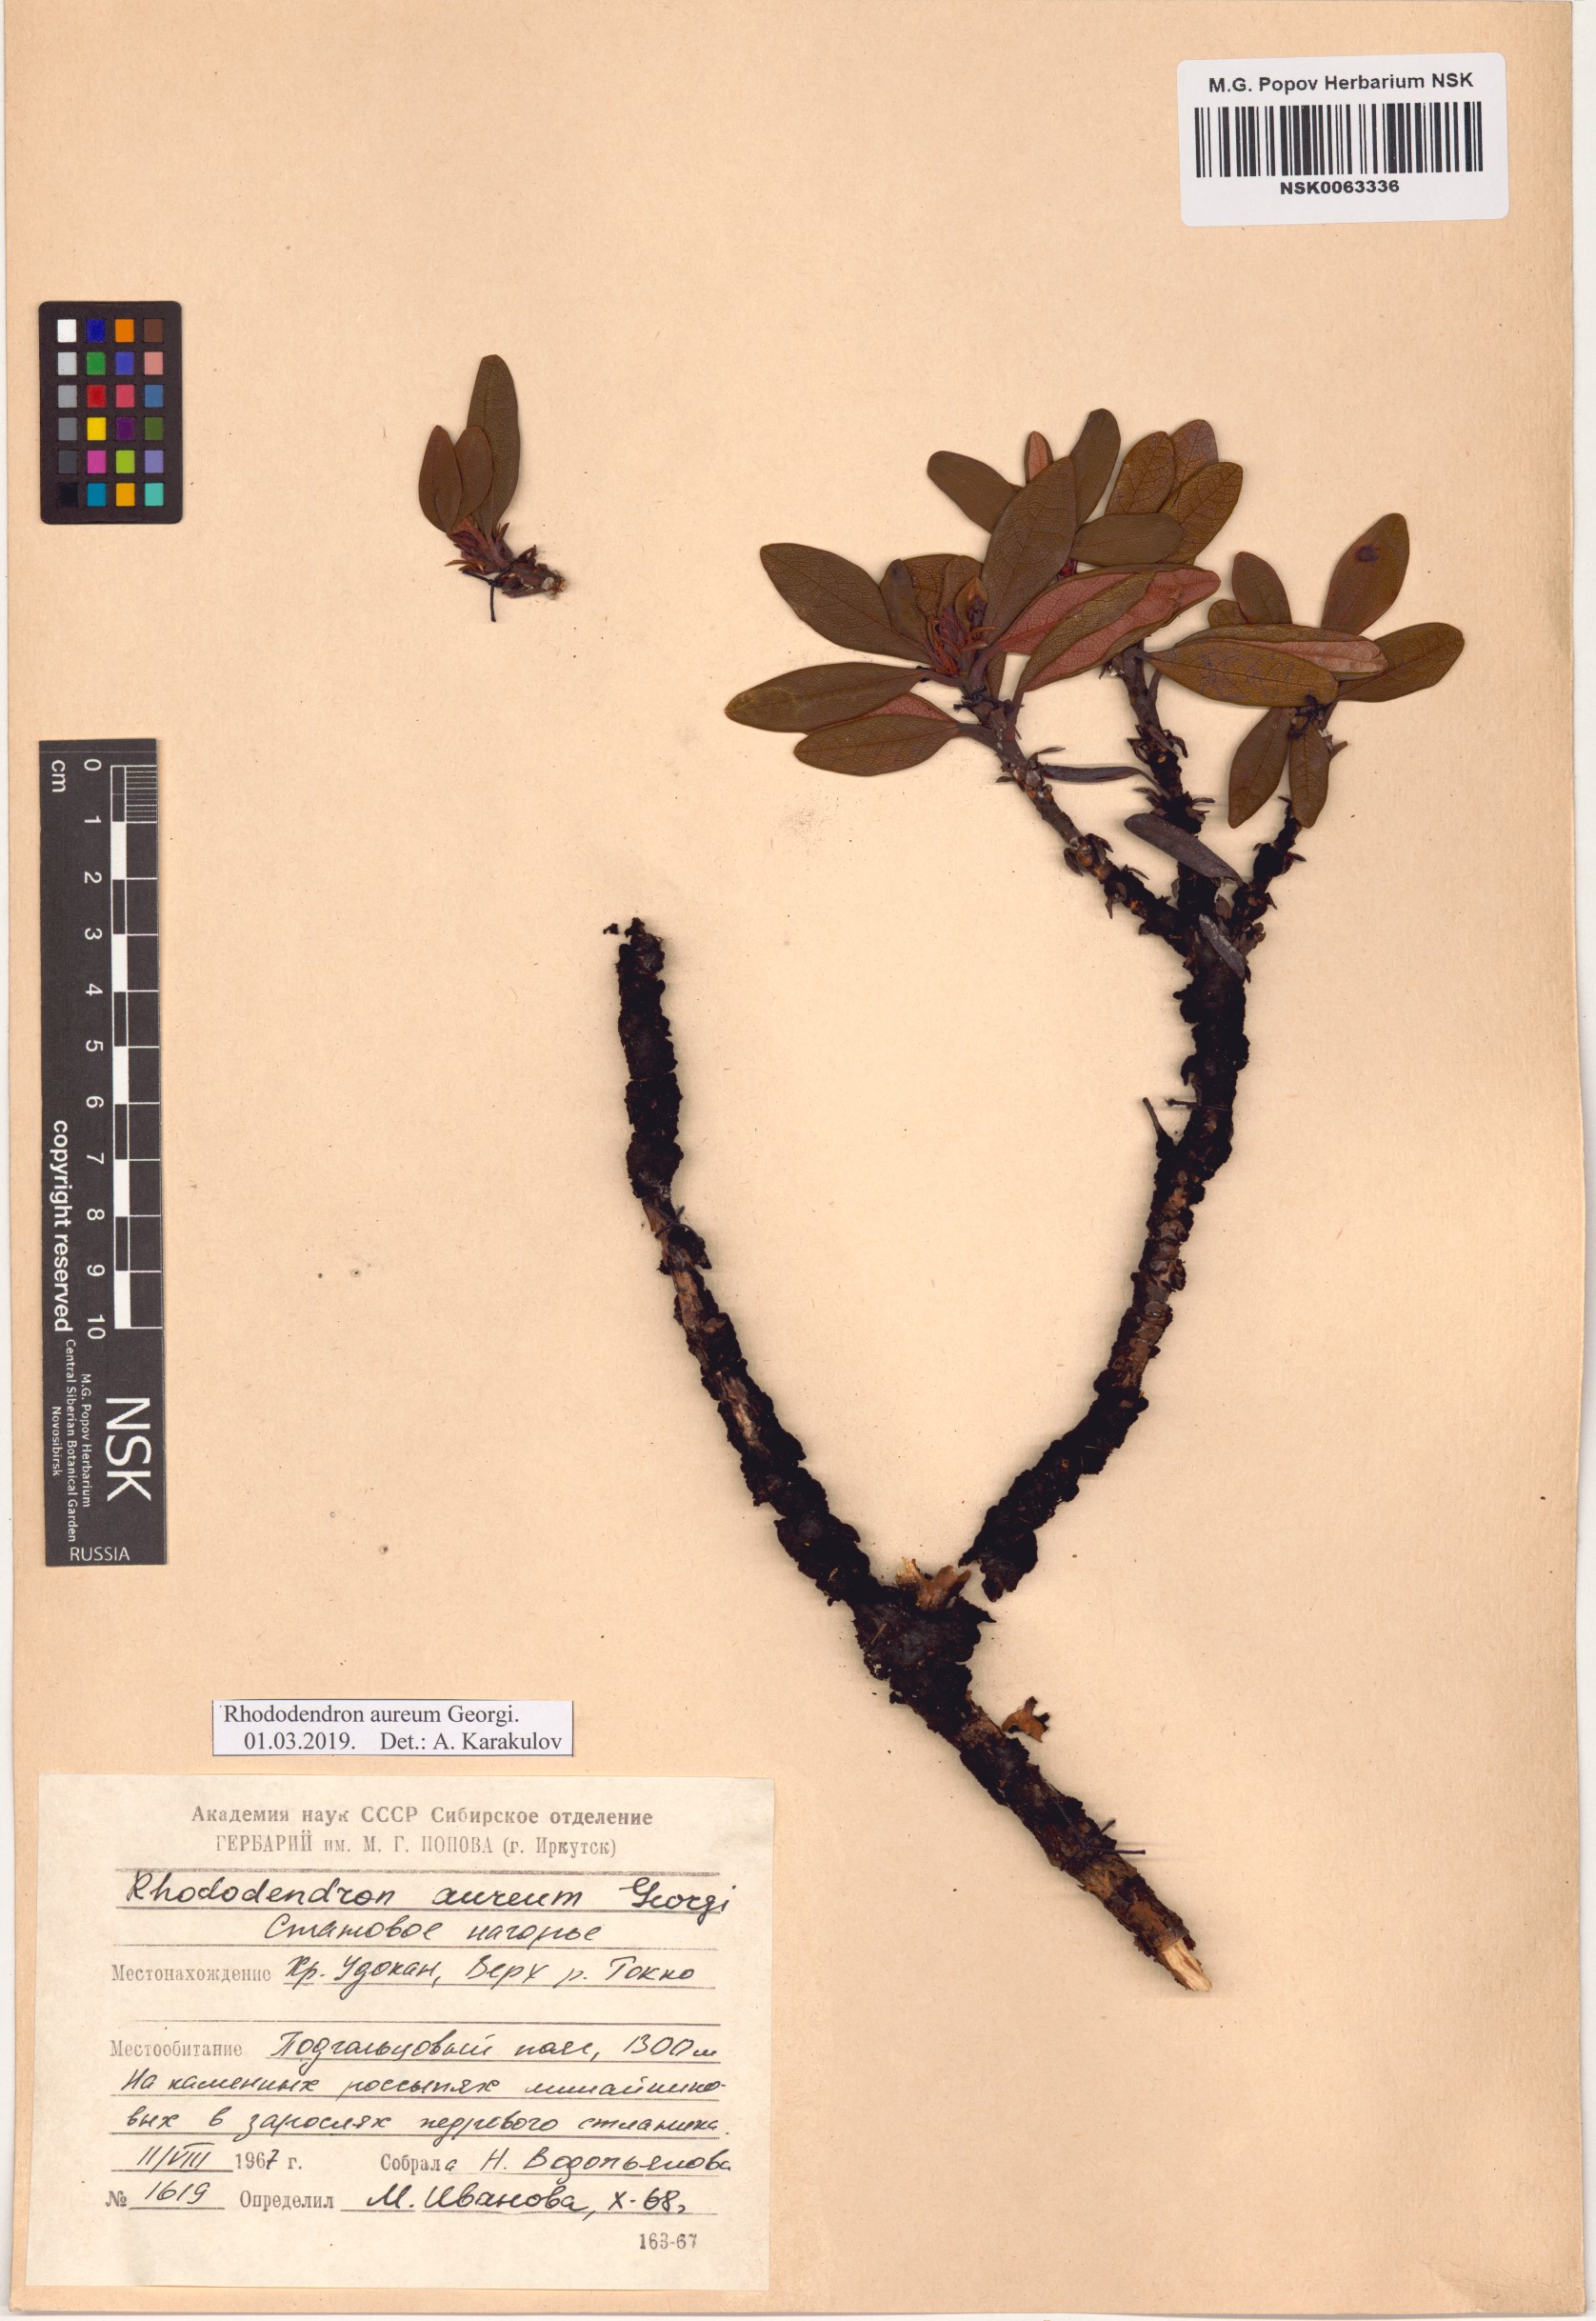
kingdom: Plantae
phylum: Tracheophyta
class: Magnoliopsida
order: Ericales
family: Ericaceae
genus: Rhododendron
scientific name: Rhododendron aureum
